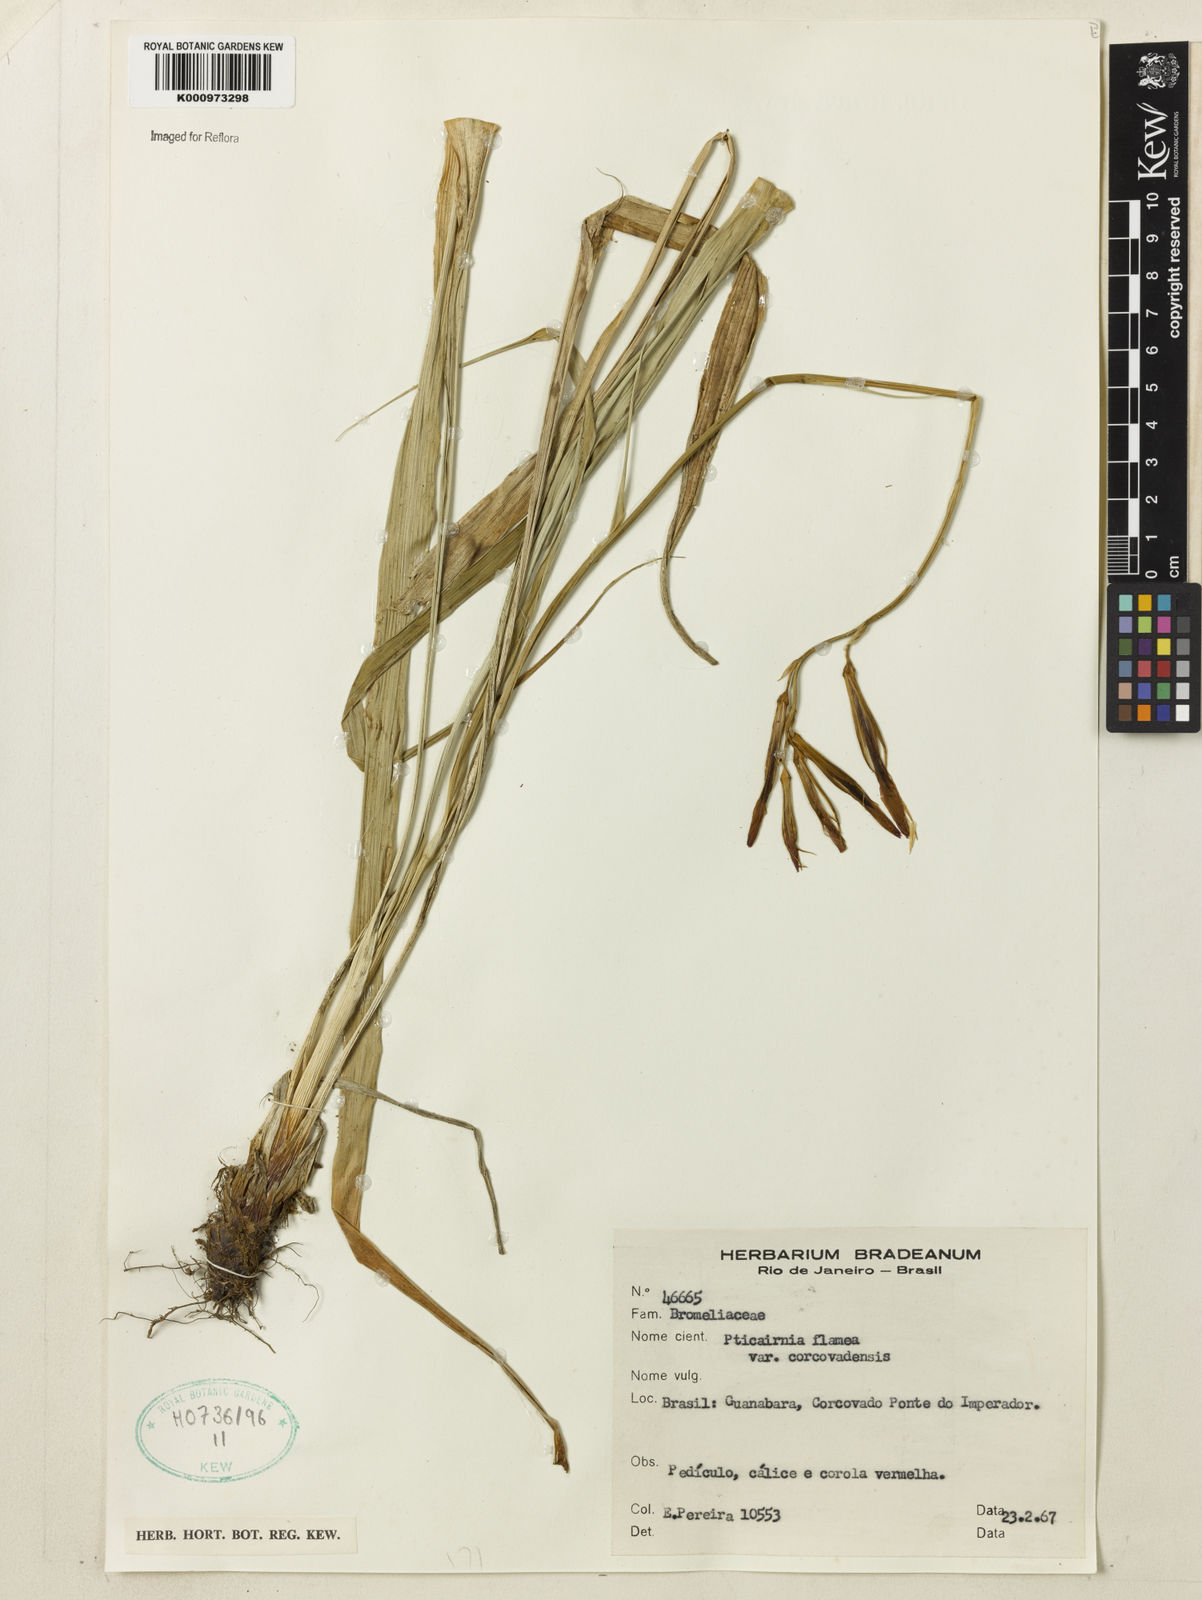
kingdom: Plantae
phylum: Tracheophyta
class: Liliopsida
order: Poales
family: Bromeliaceae
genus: Pitcairnia
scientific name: Pitcairnia corcovadensis
